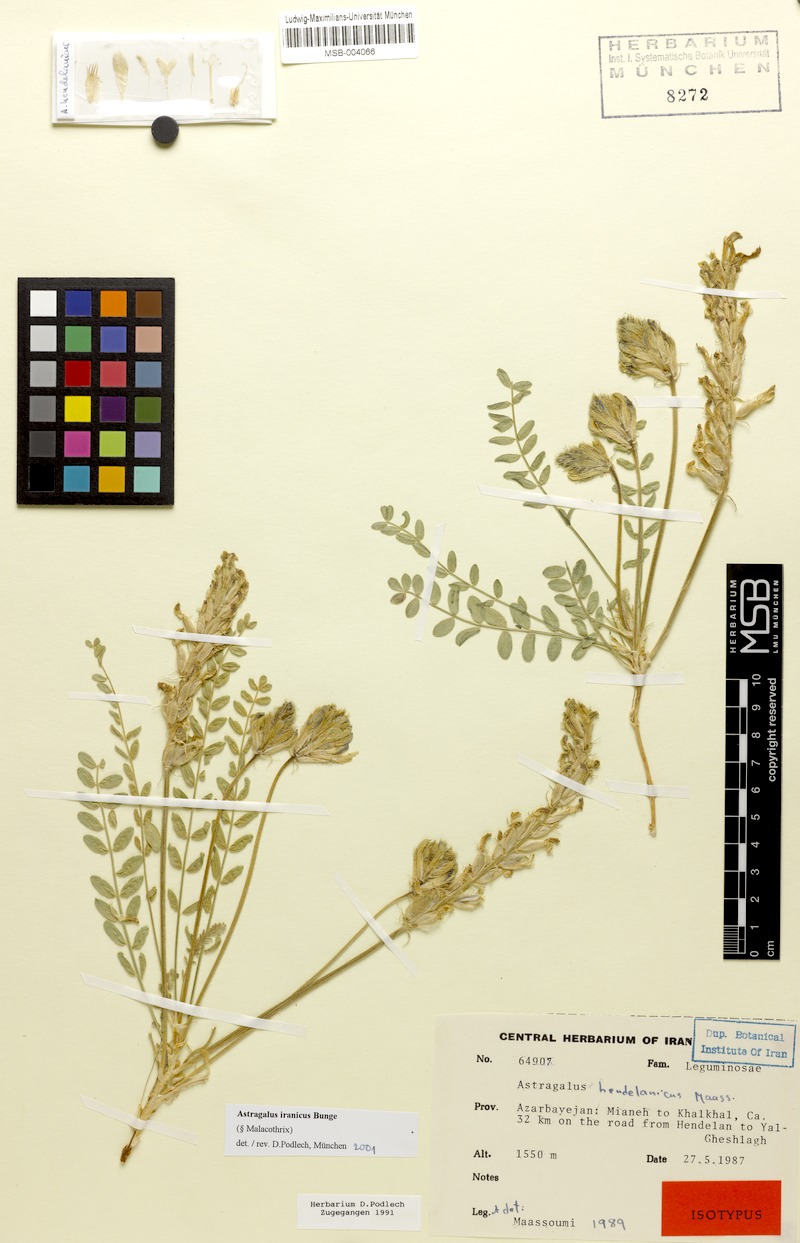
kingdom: Plantae
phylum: Tracheophyta
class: Magnoliopsida
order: Fabales
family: Fabaceae
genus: Astragalus
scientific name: Astragalus iranicus
